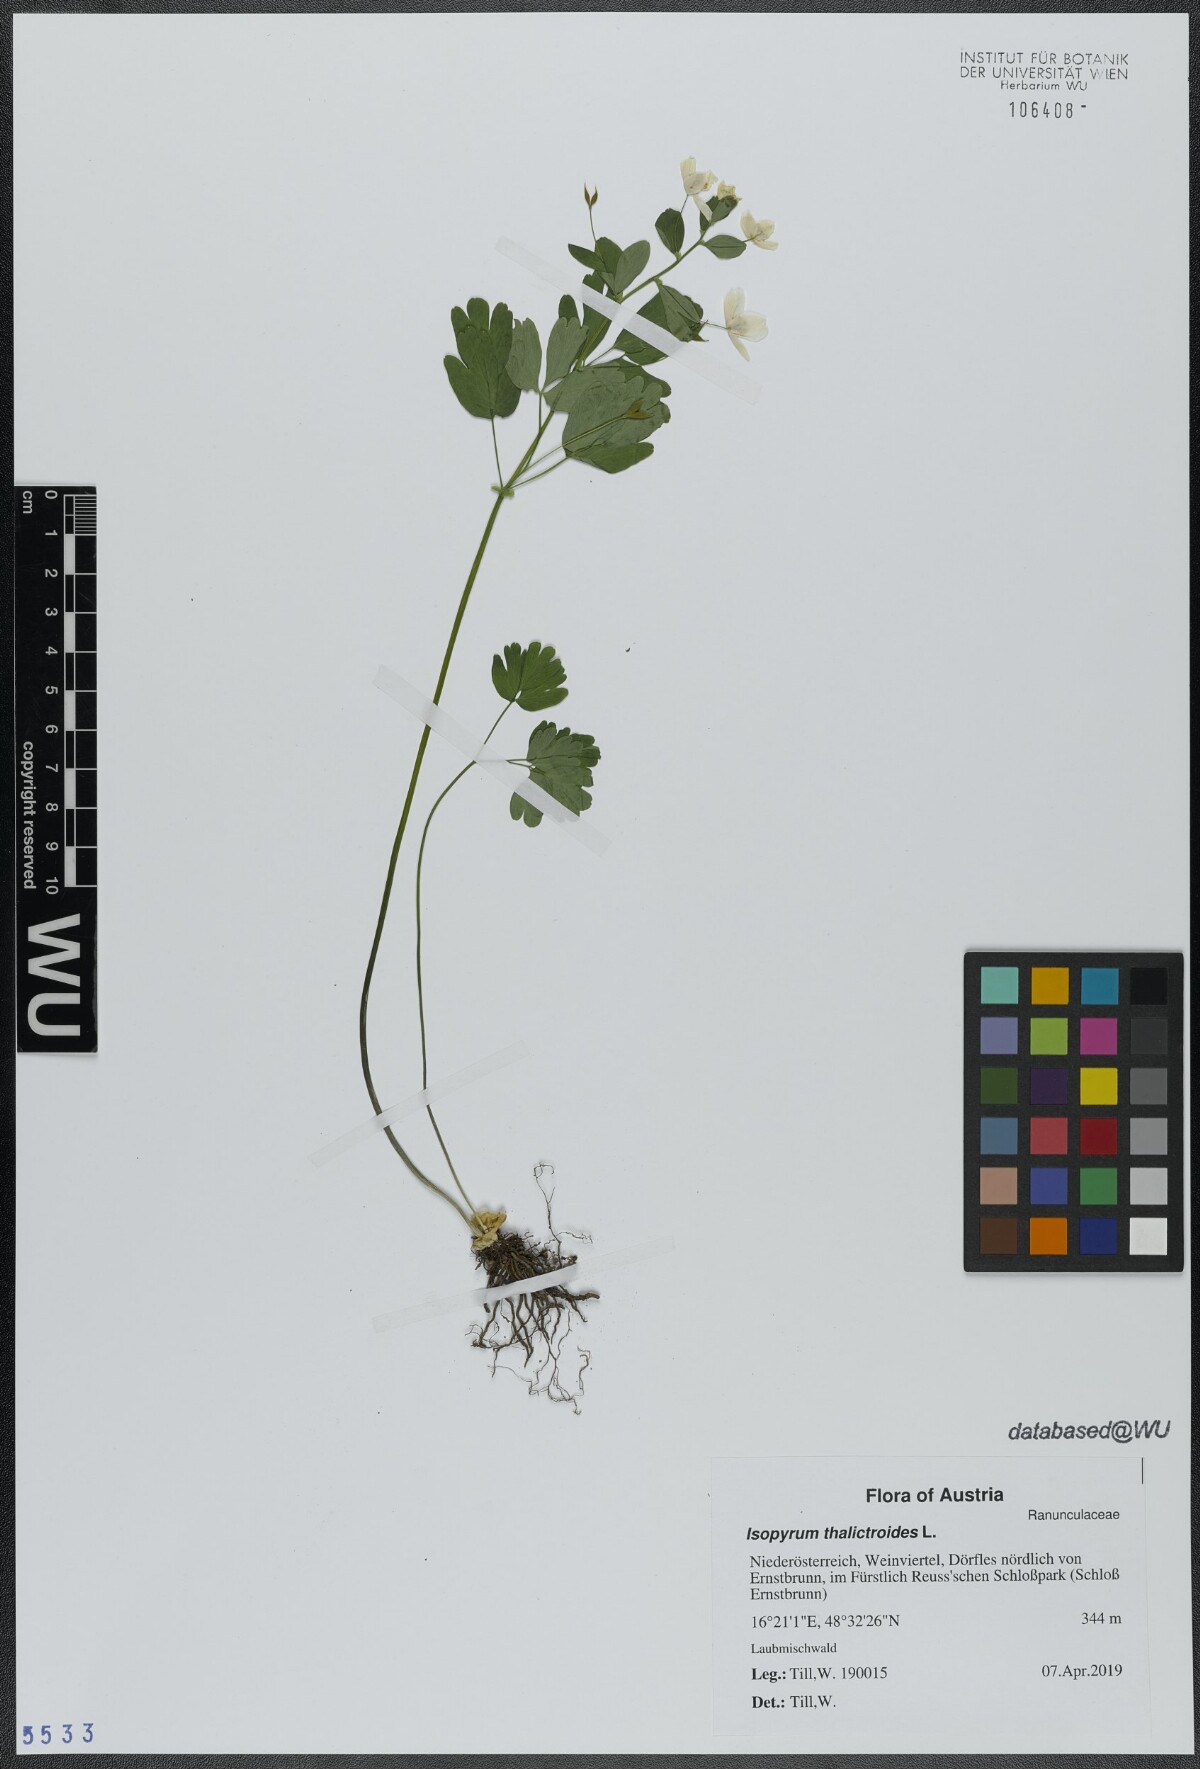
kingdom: Plantae
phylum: Tracheophyta
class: Magnoliopsida
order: Ranunculales
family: Ranunculaceae
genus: Isopyrum
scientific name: Isopyrum thalictroides
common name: Isopyrum
